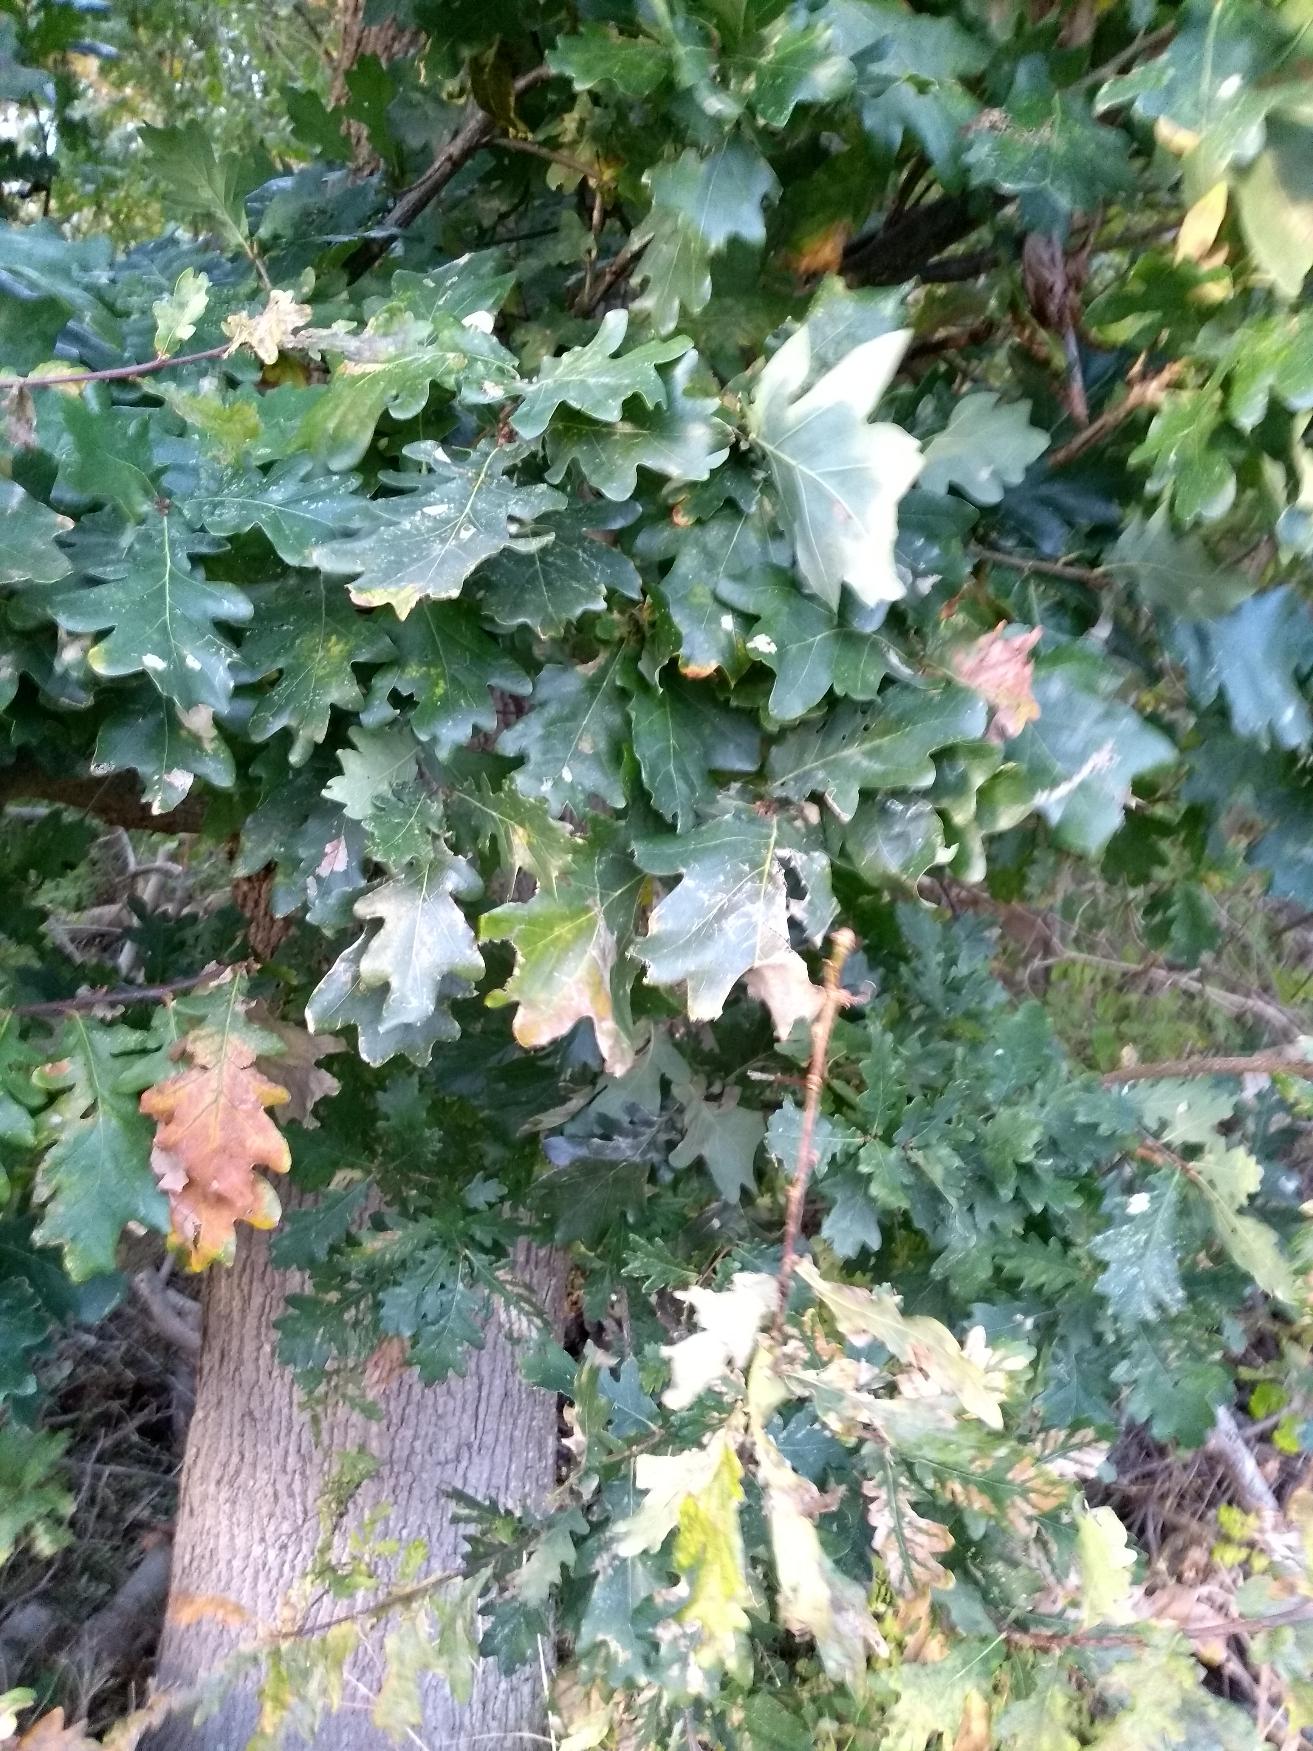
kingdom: Plantae
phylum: Tracheophyta
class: Magnoliopsida
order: Fagales
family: Fagaceae
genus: Quercus
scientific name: Quercus robur
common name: Stilk-eg/almindelig eg
